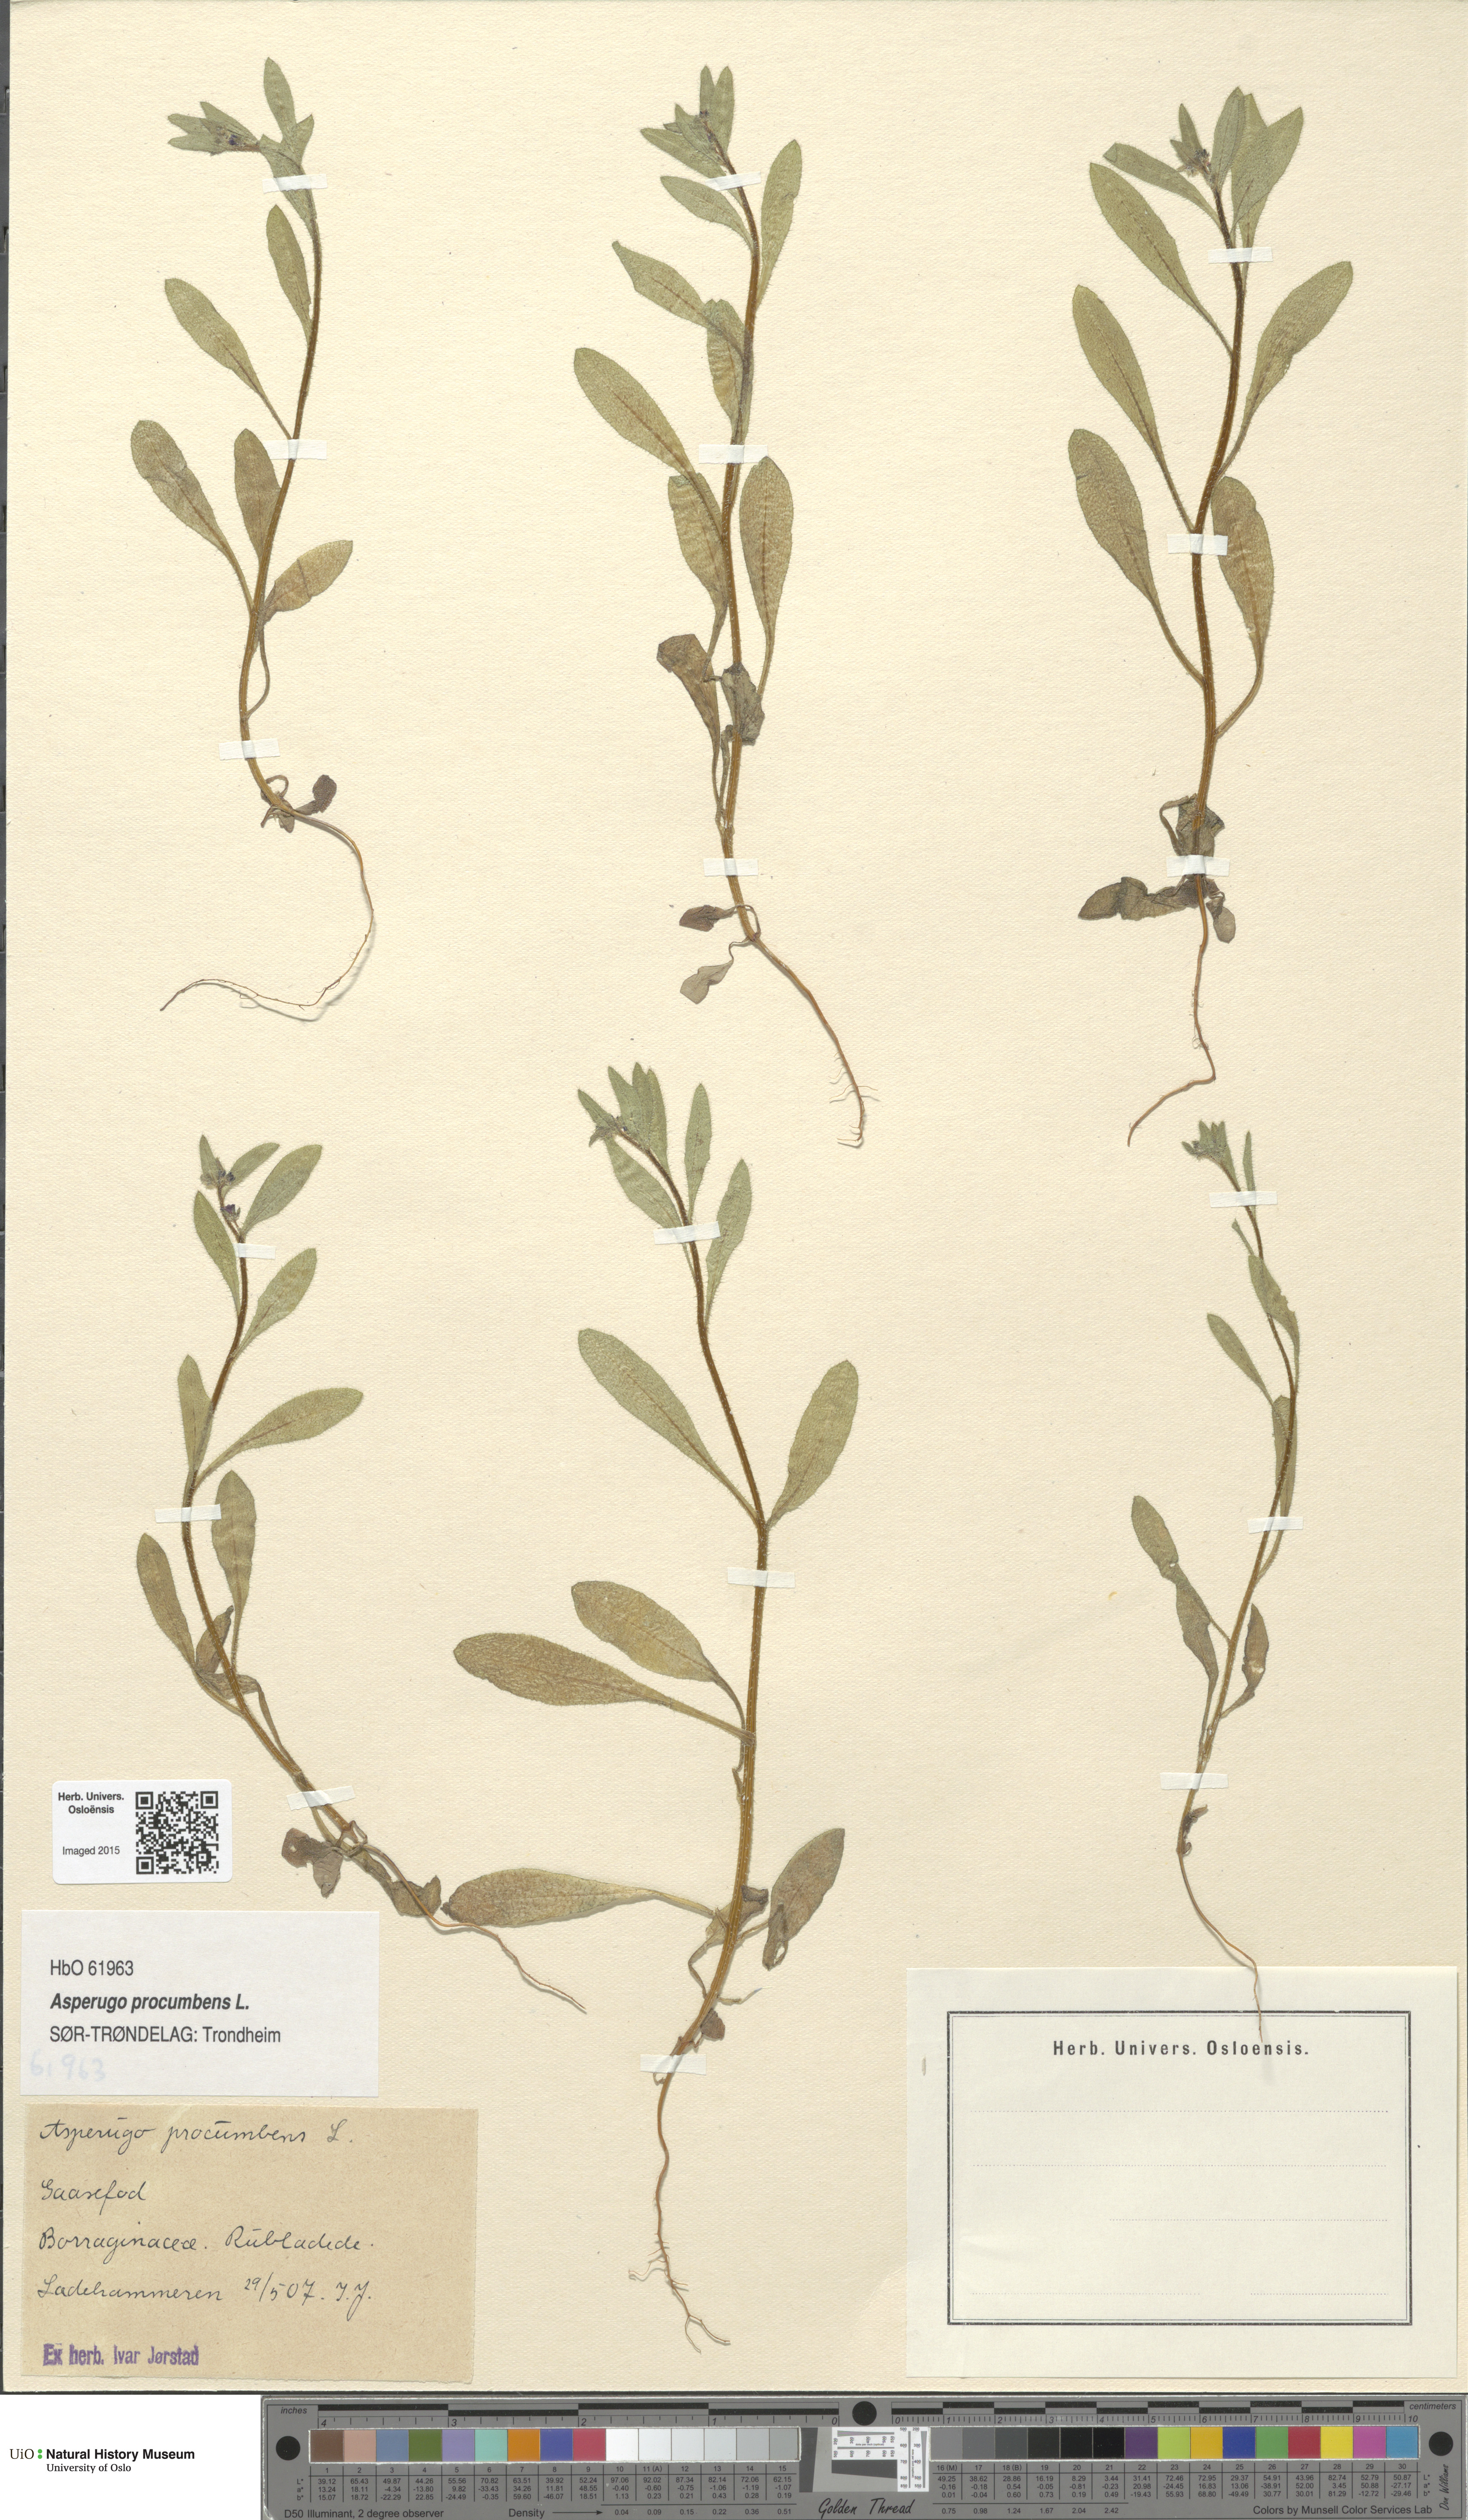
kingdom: Plantae
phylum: Tracheophyta
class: Magnoliopsida
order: Boraginales
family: Boraginaceae
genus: Asperugo
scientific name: Asperugo procumbens
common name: Madwort
